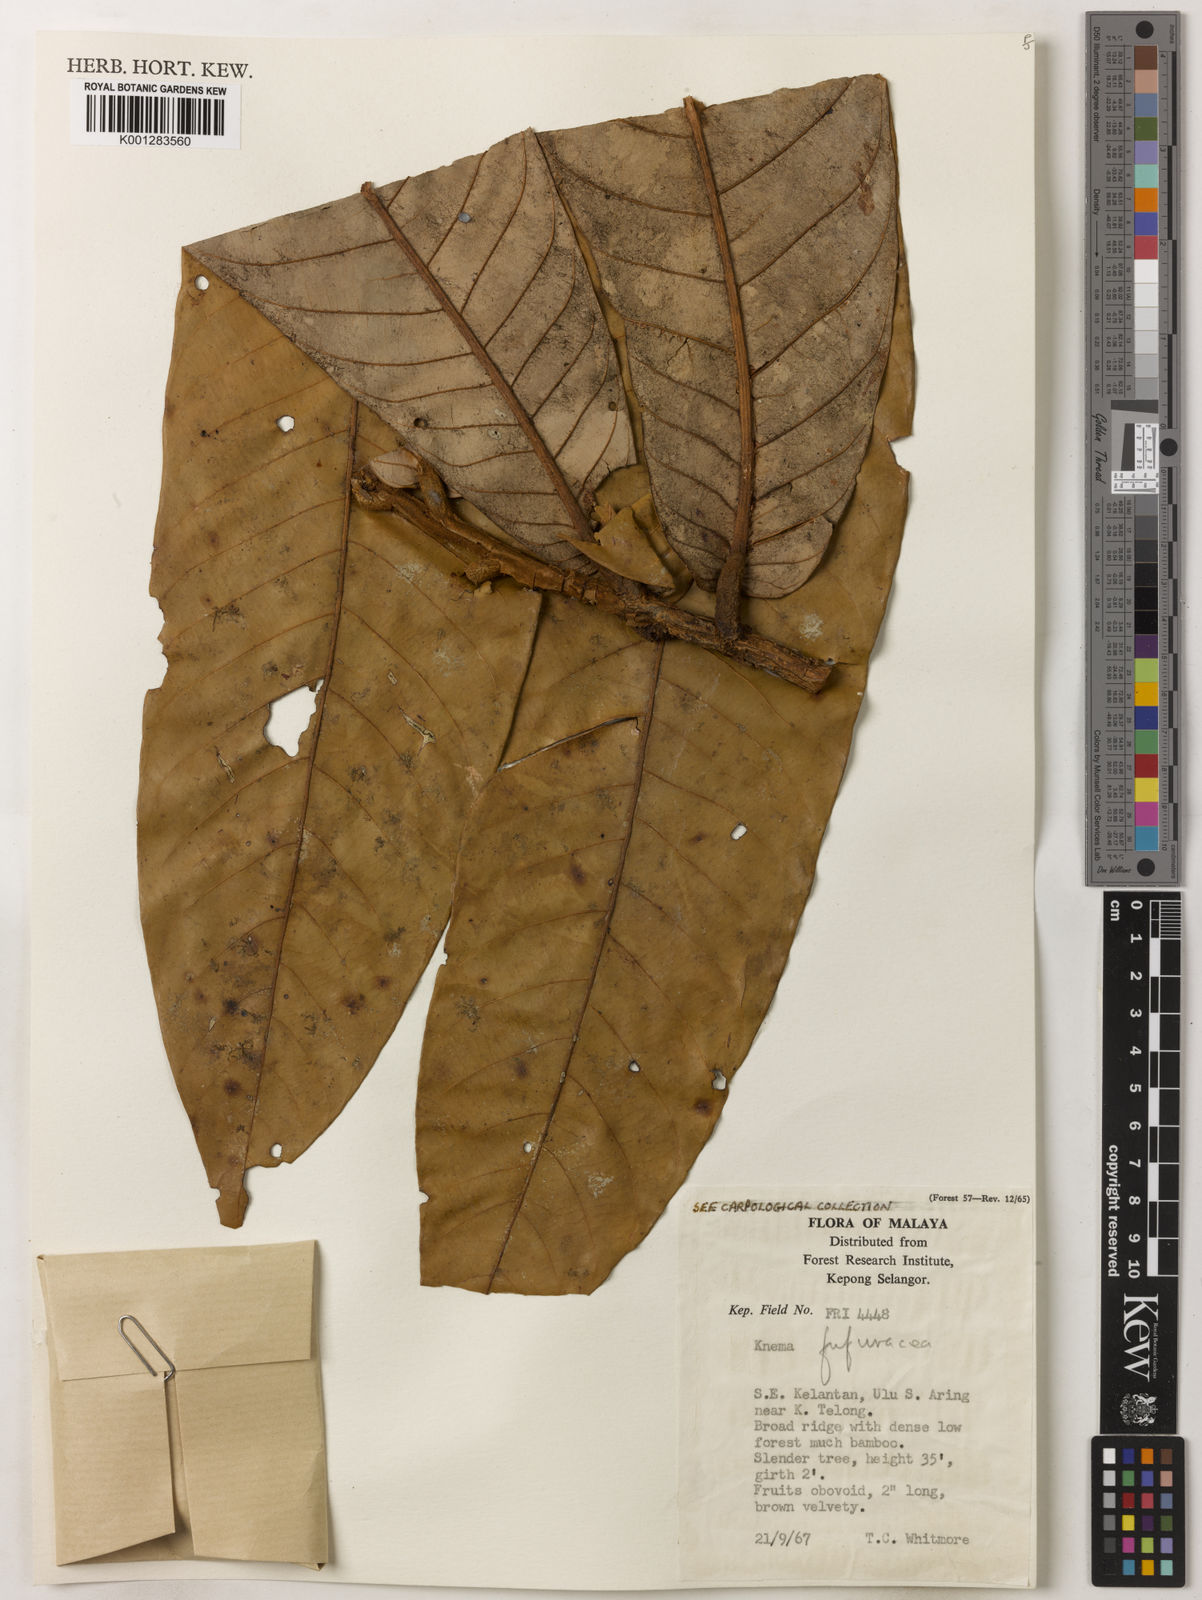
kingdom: Plantae
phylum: Tracheophyta
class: Magnoliopsida
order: Magnoliales
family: Myristicaceae
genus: Knema
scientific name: Knema furfuracea
